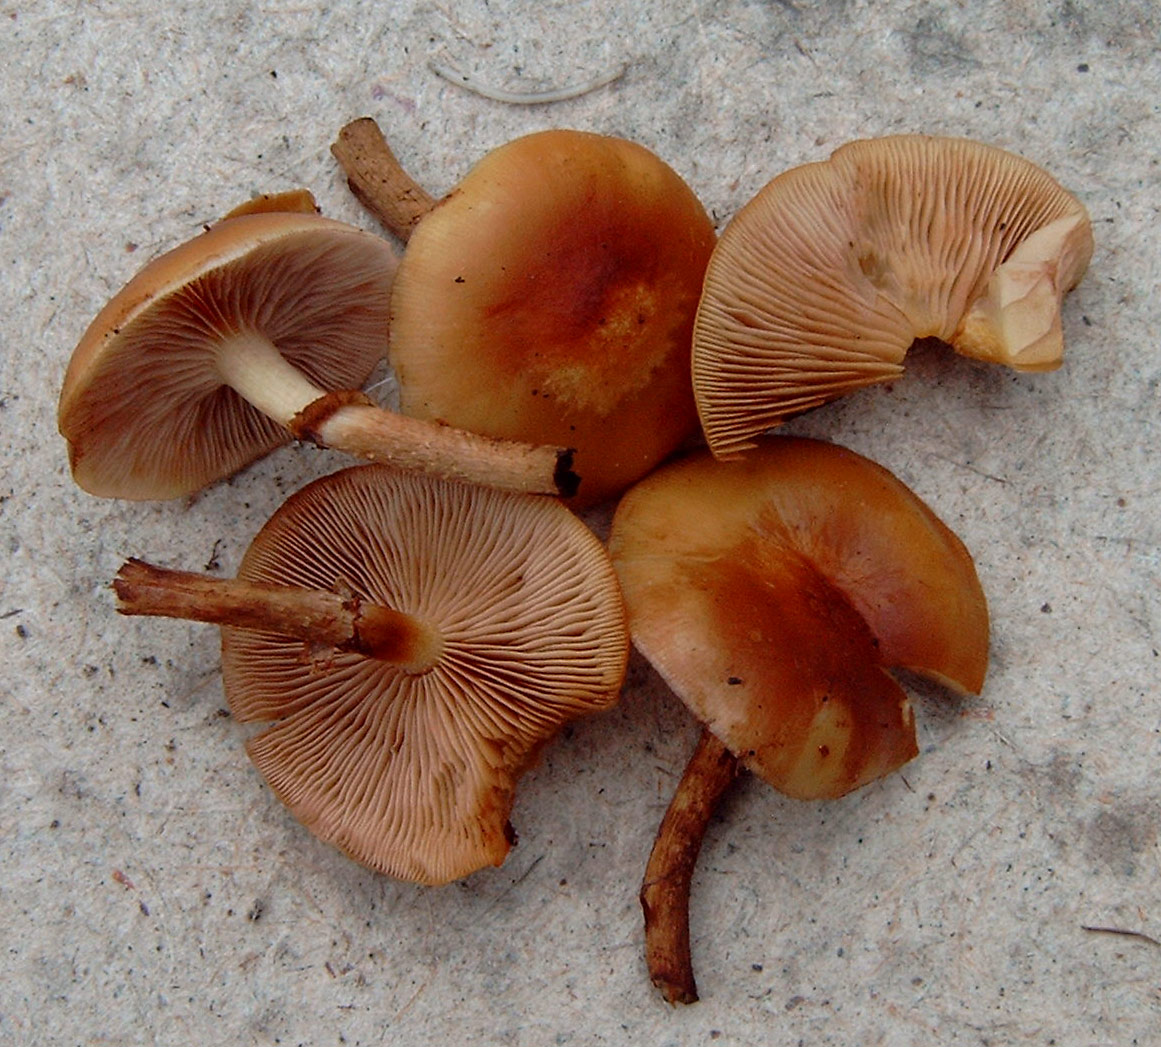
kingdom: Fungi
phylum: Basidiomycota
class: Agaricomycetes
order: Agaricales
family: Strophariaceae
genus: Kuehneromyces
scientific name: Kuehneromyces mutabilis
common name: foranderlig skælhat
